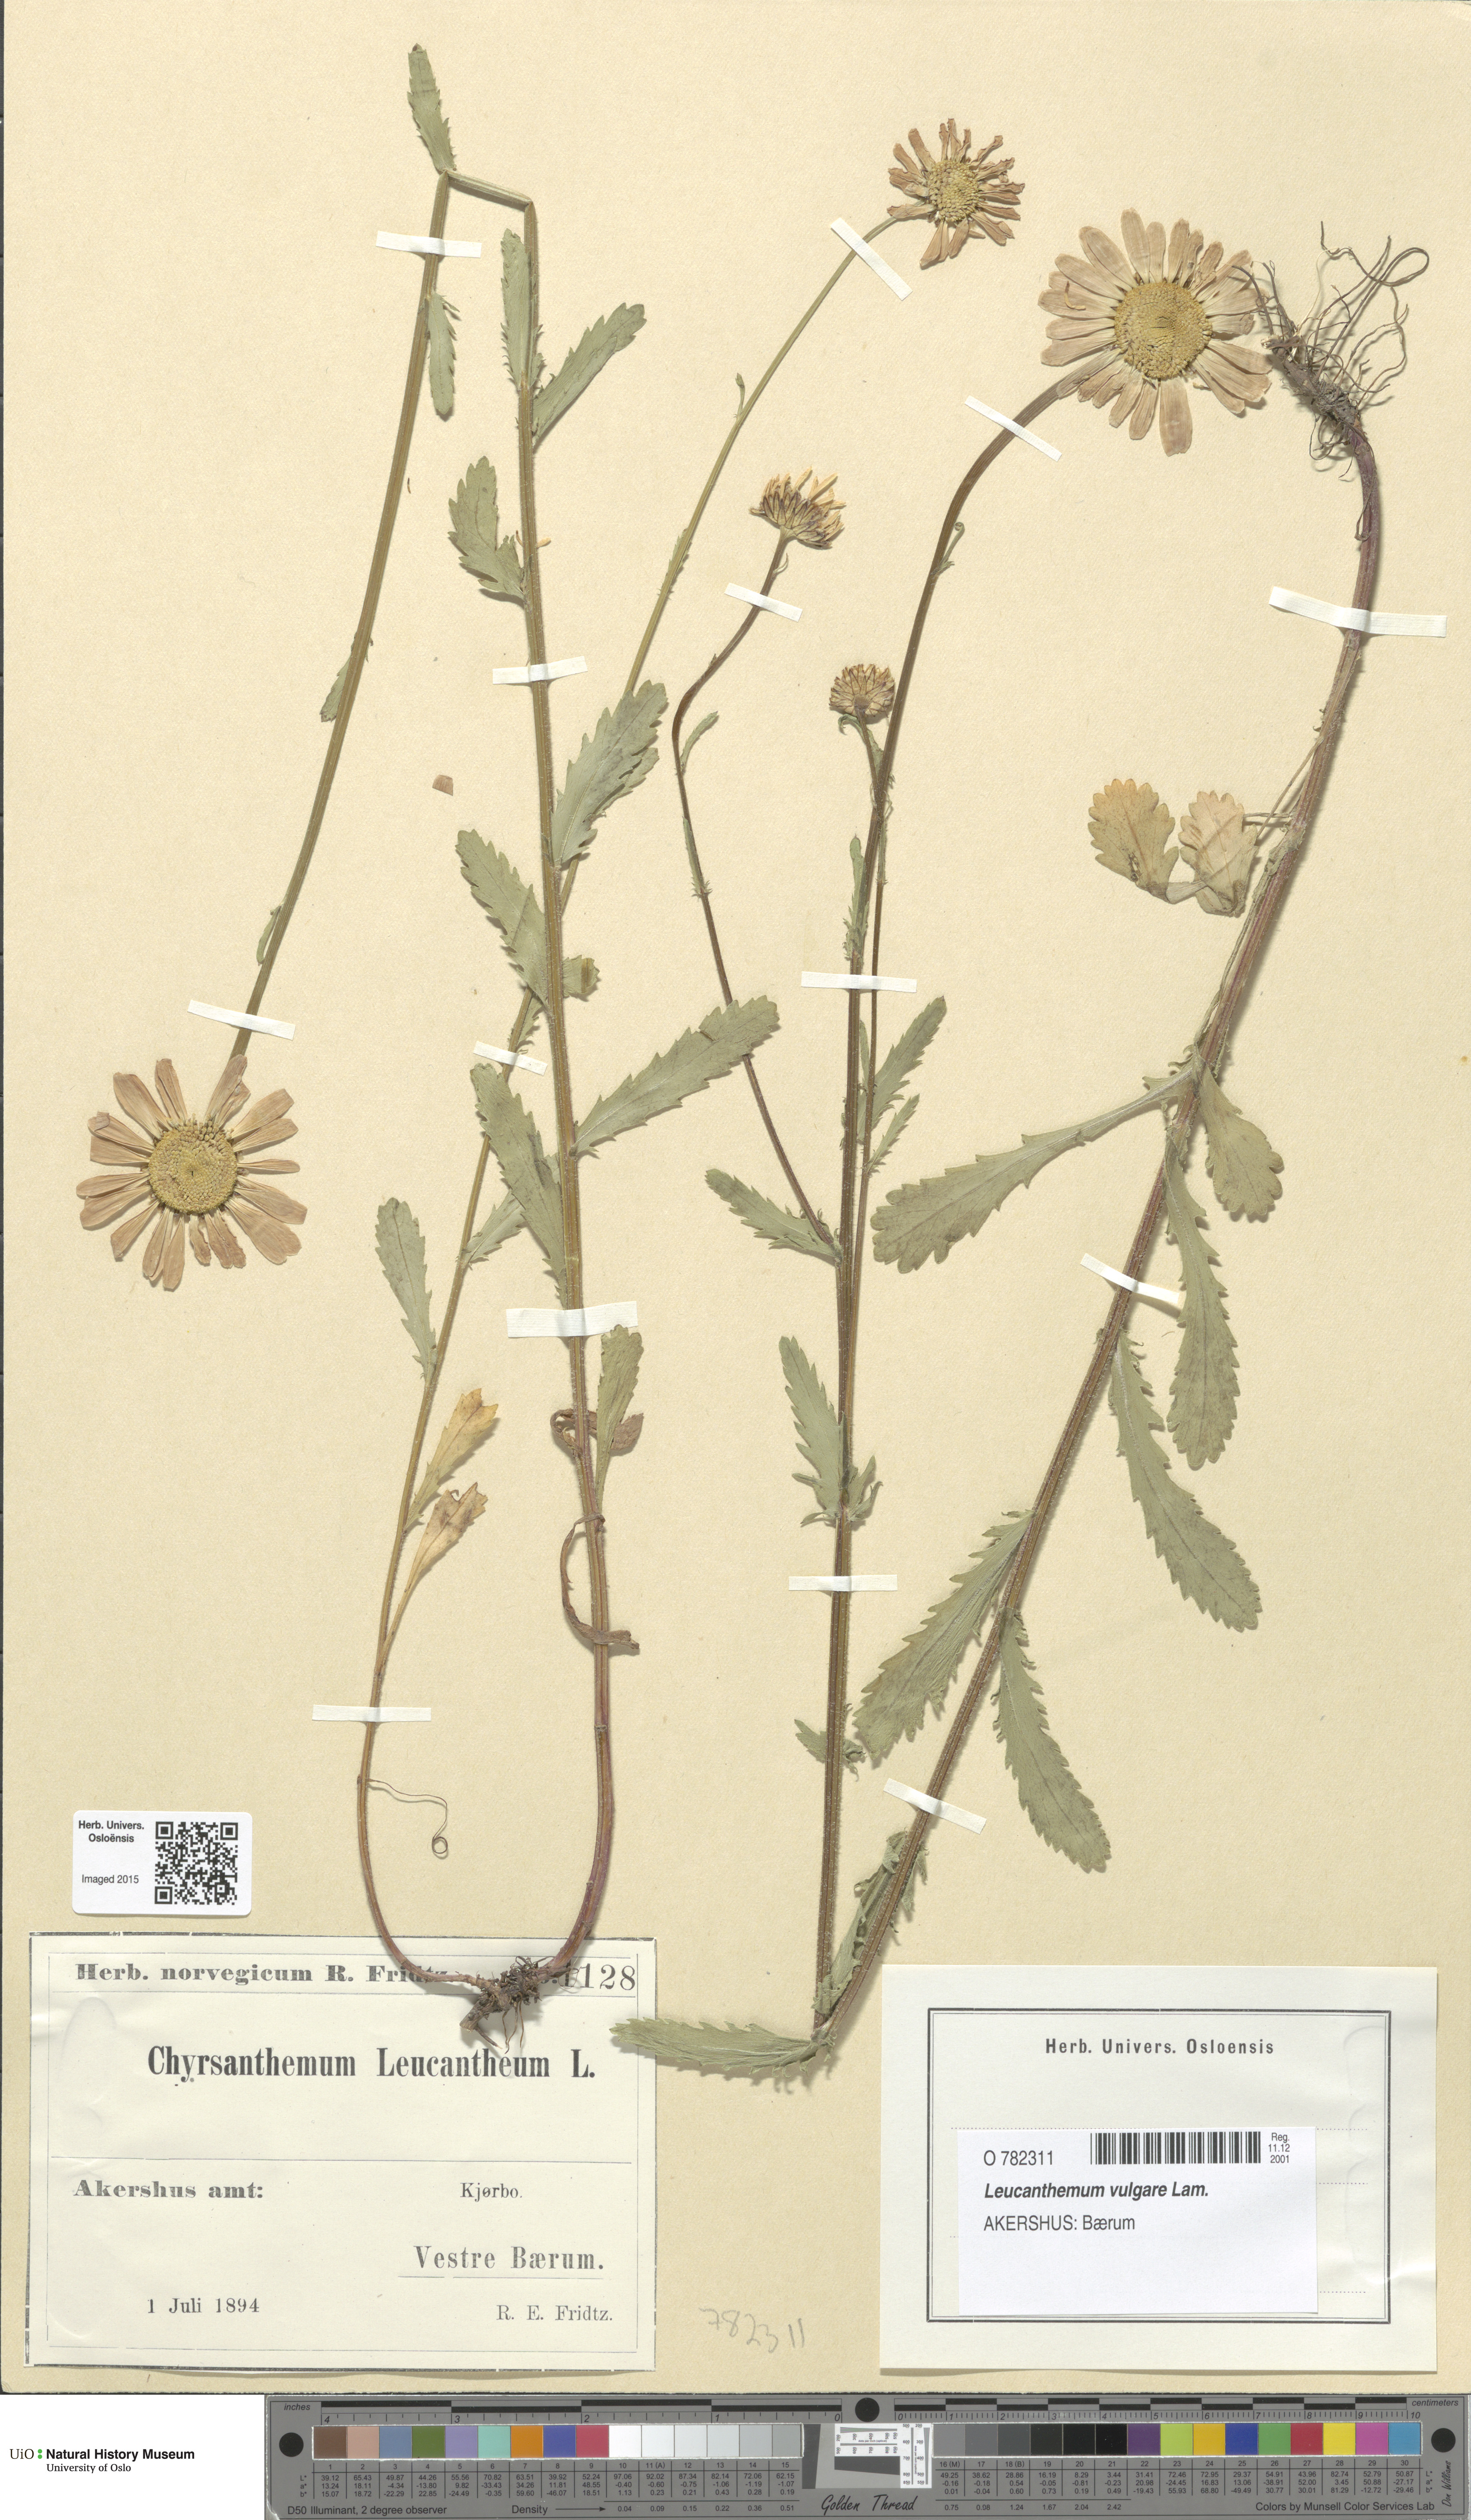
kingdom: Plantae
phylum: Tracheophyta
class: Magnoliopsida
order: Asterales
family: Asteraceae
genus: Leucanthemum
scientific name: Leucanthemum vulgare
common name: Oxeye daisy
